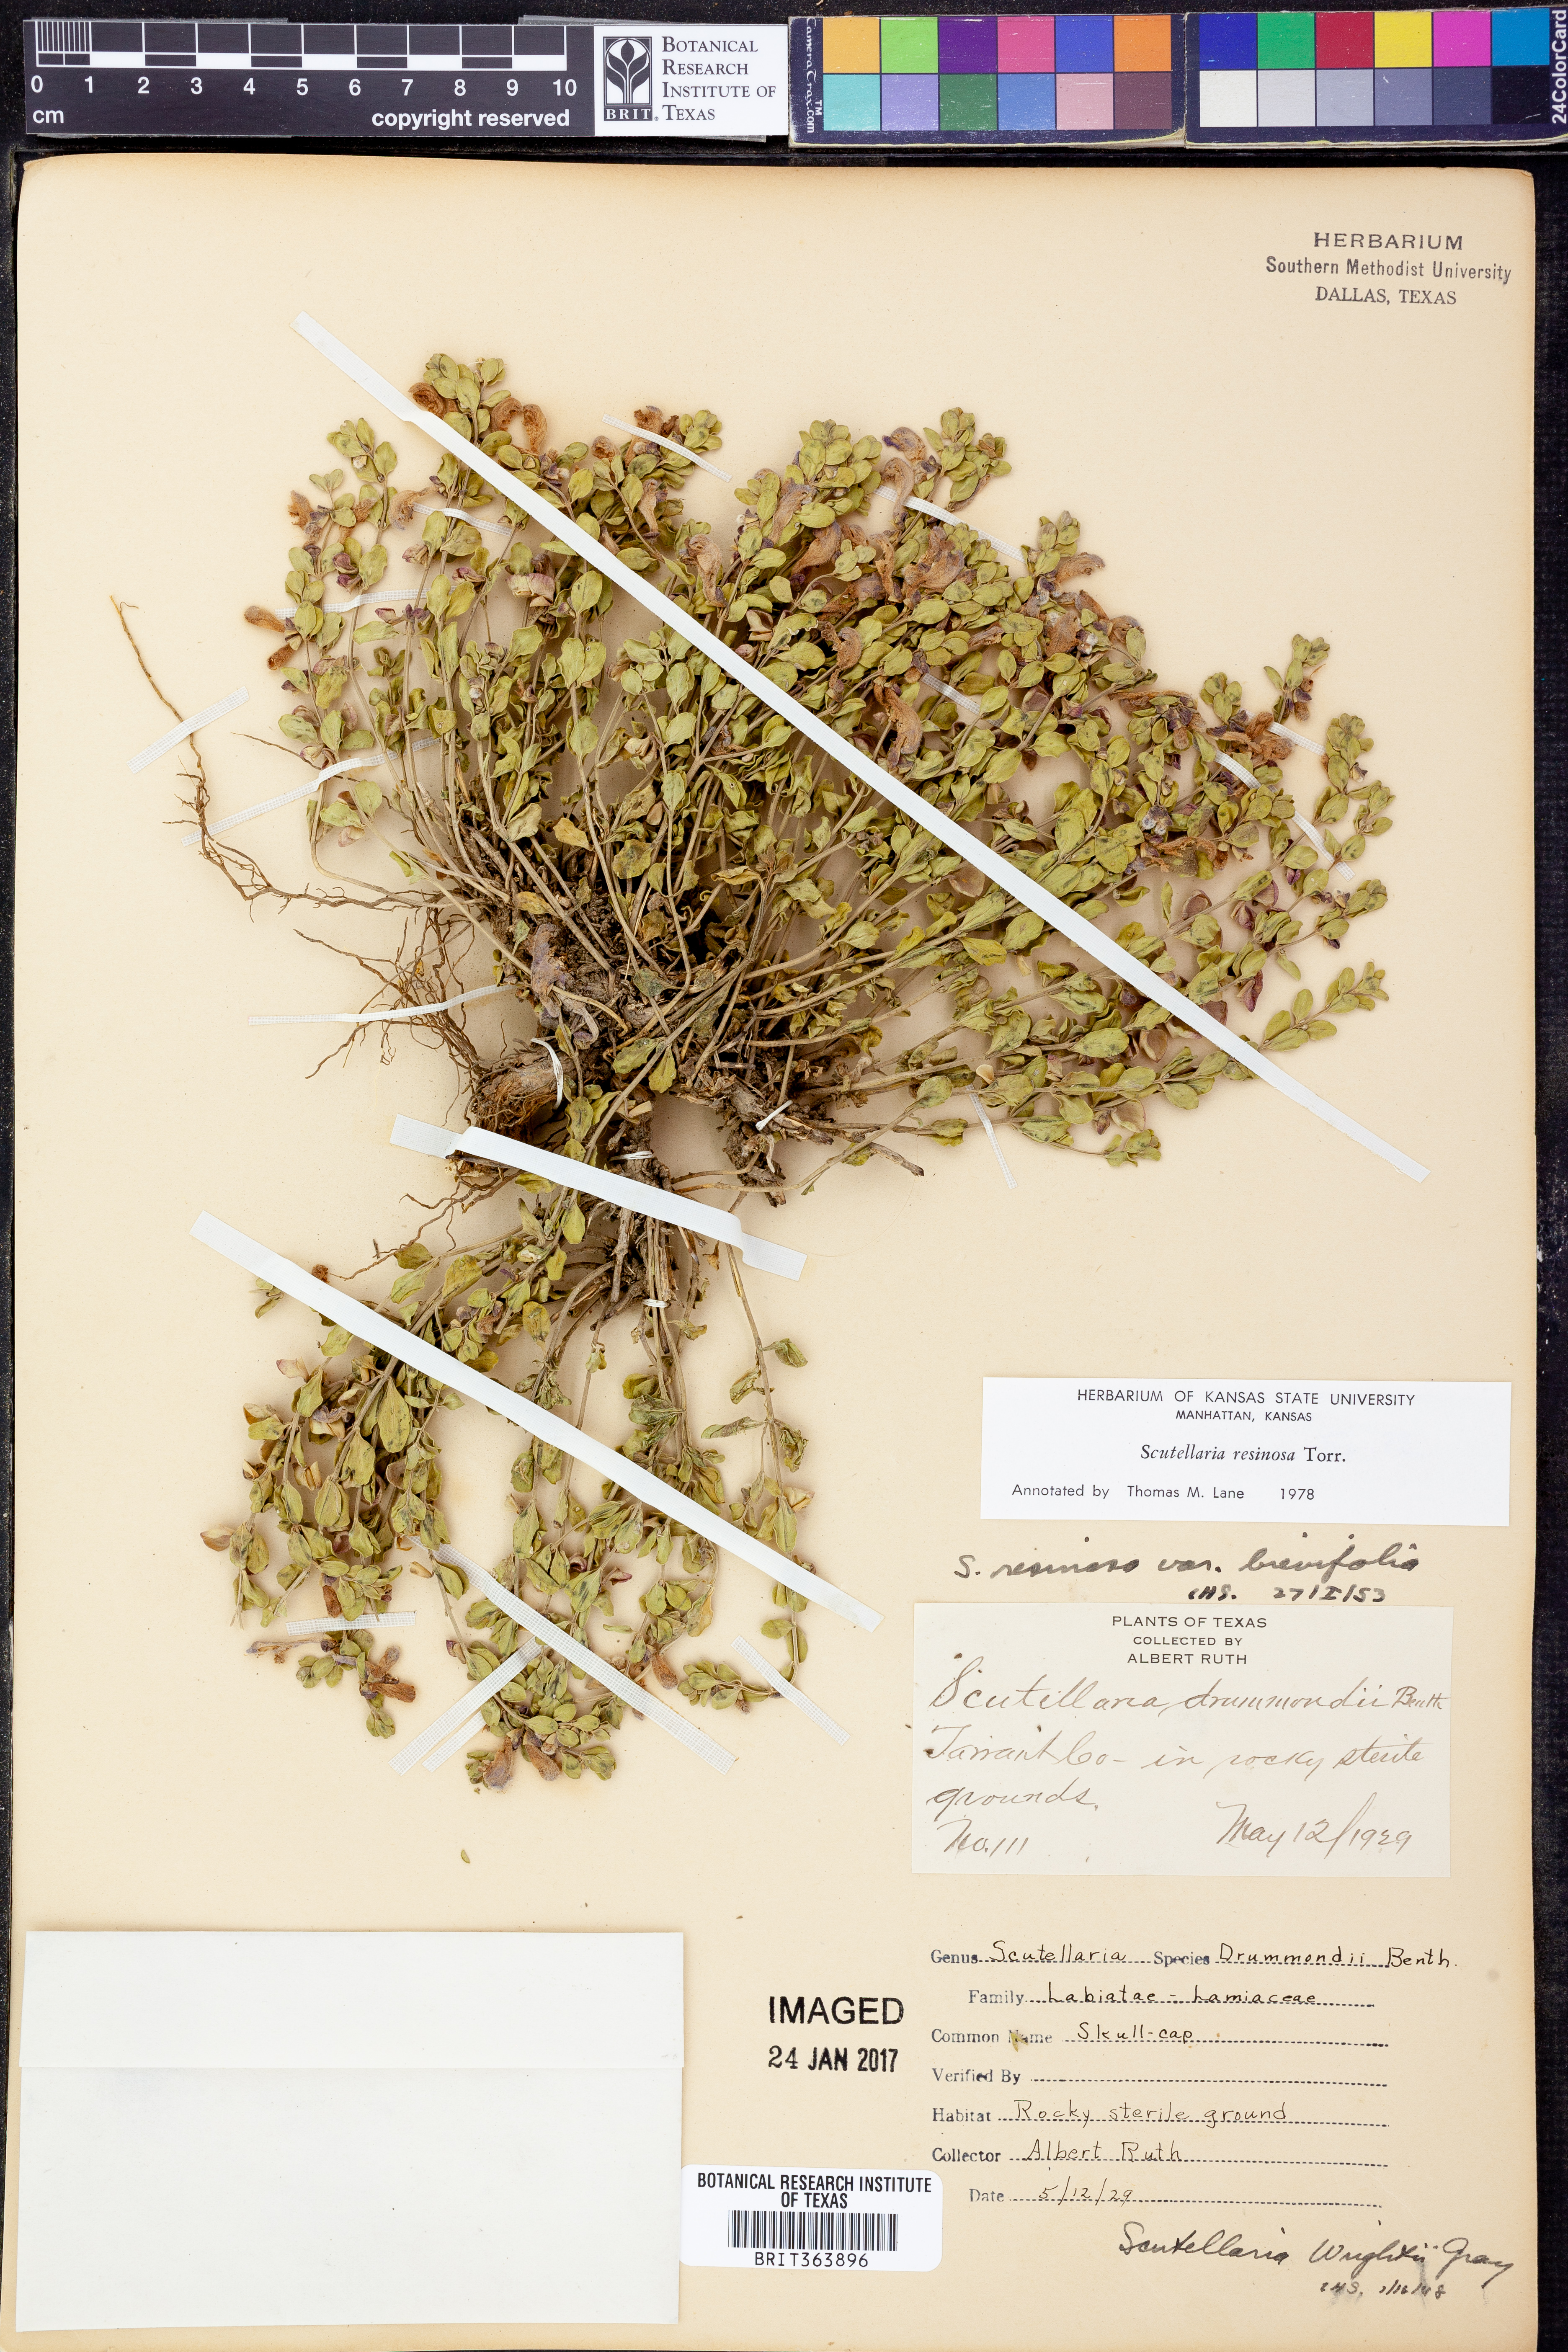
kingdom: Plantae
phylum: Tracheophyta
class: Magnoliopsida
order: Lamiales
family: Lamiaceae
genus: Scutellaria
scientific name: Scutellaria resinosa
